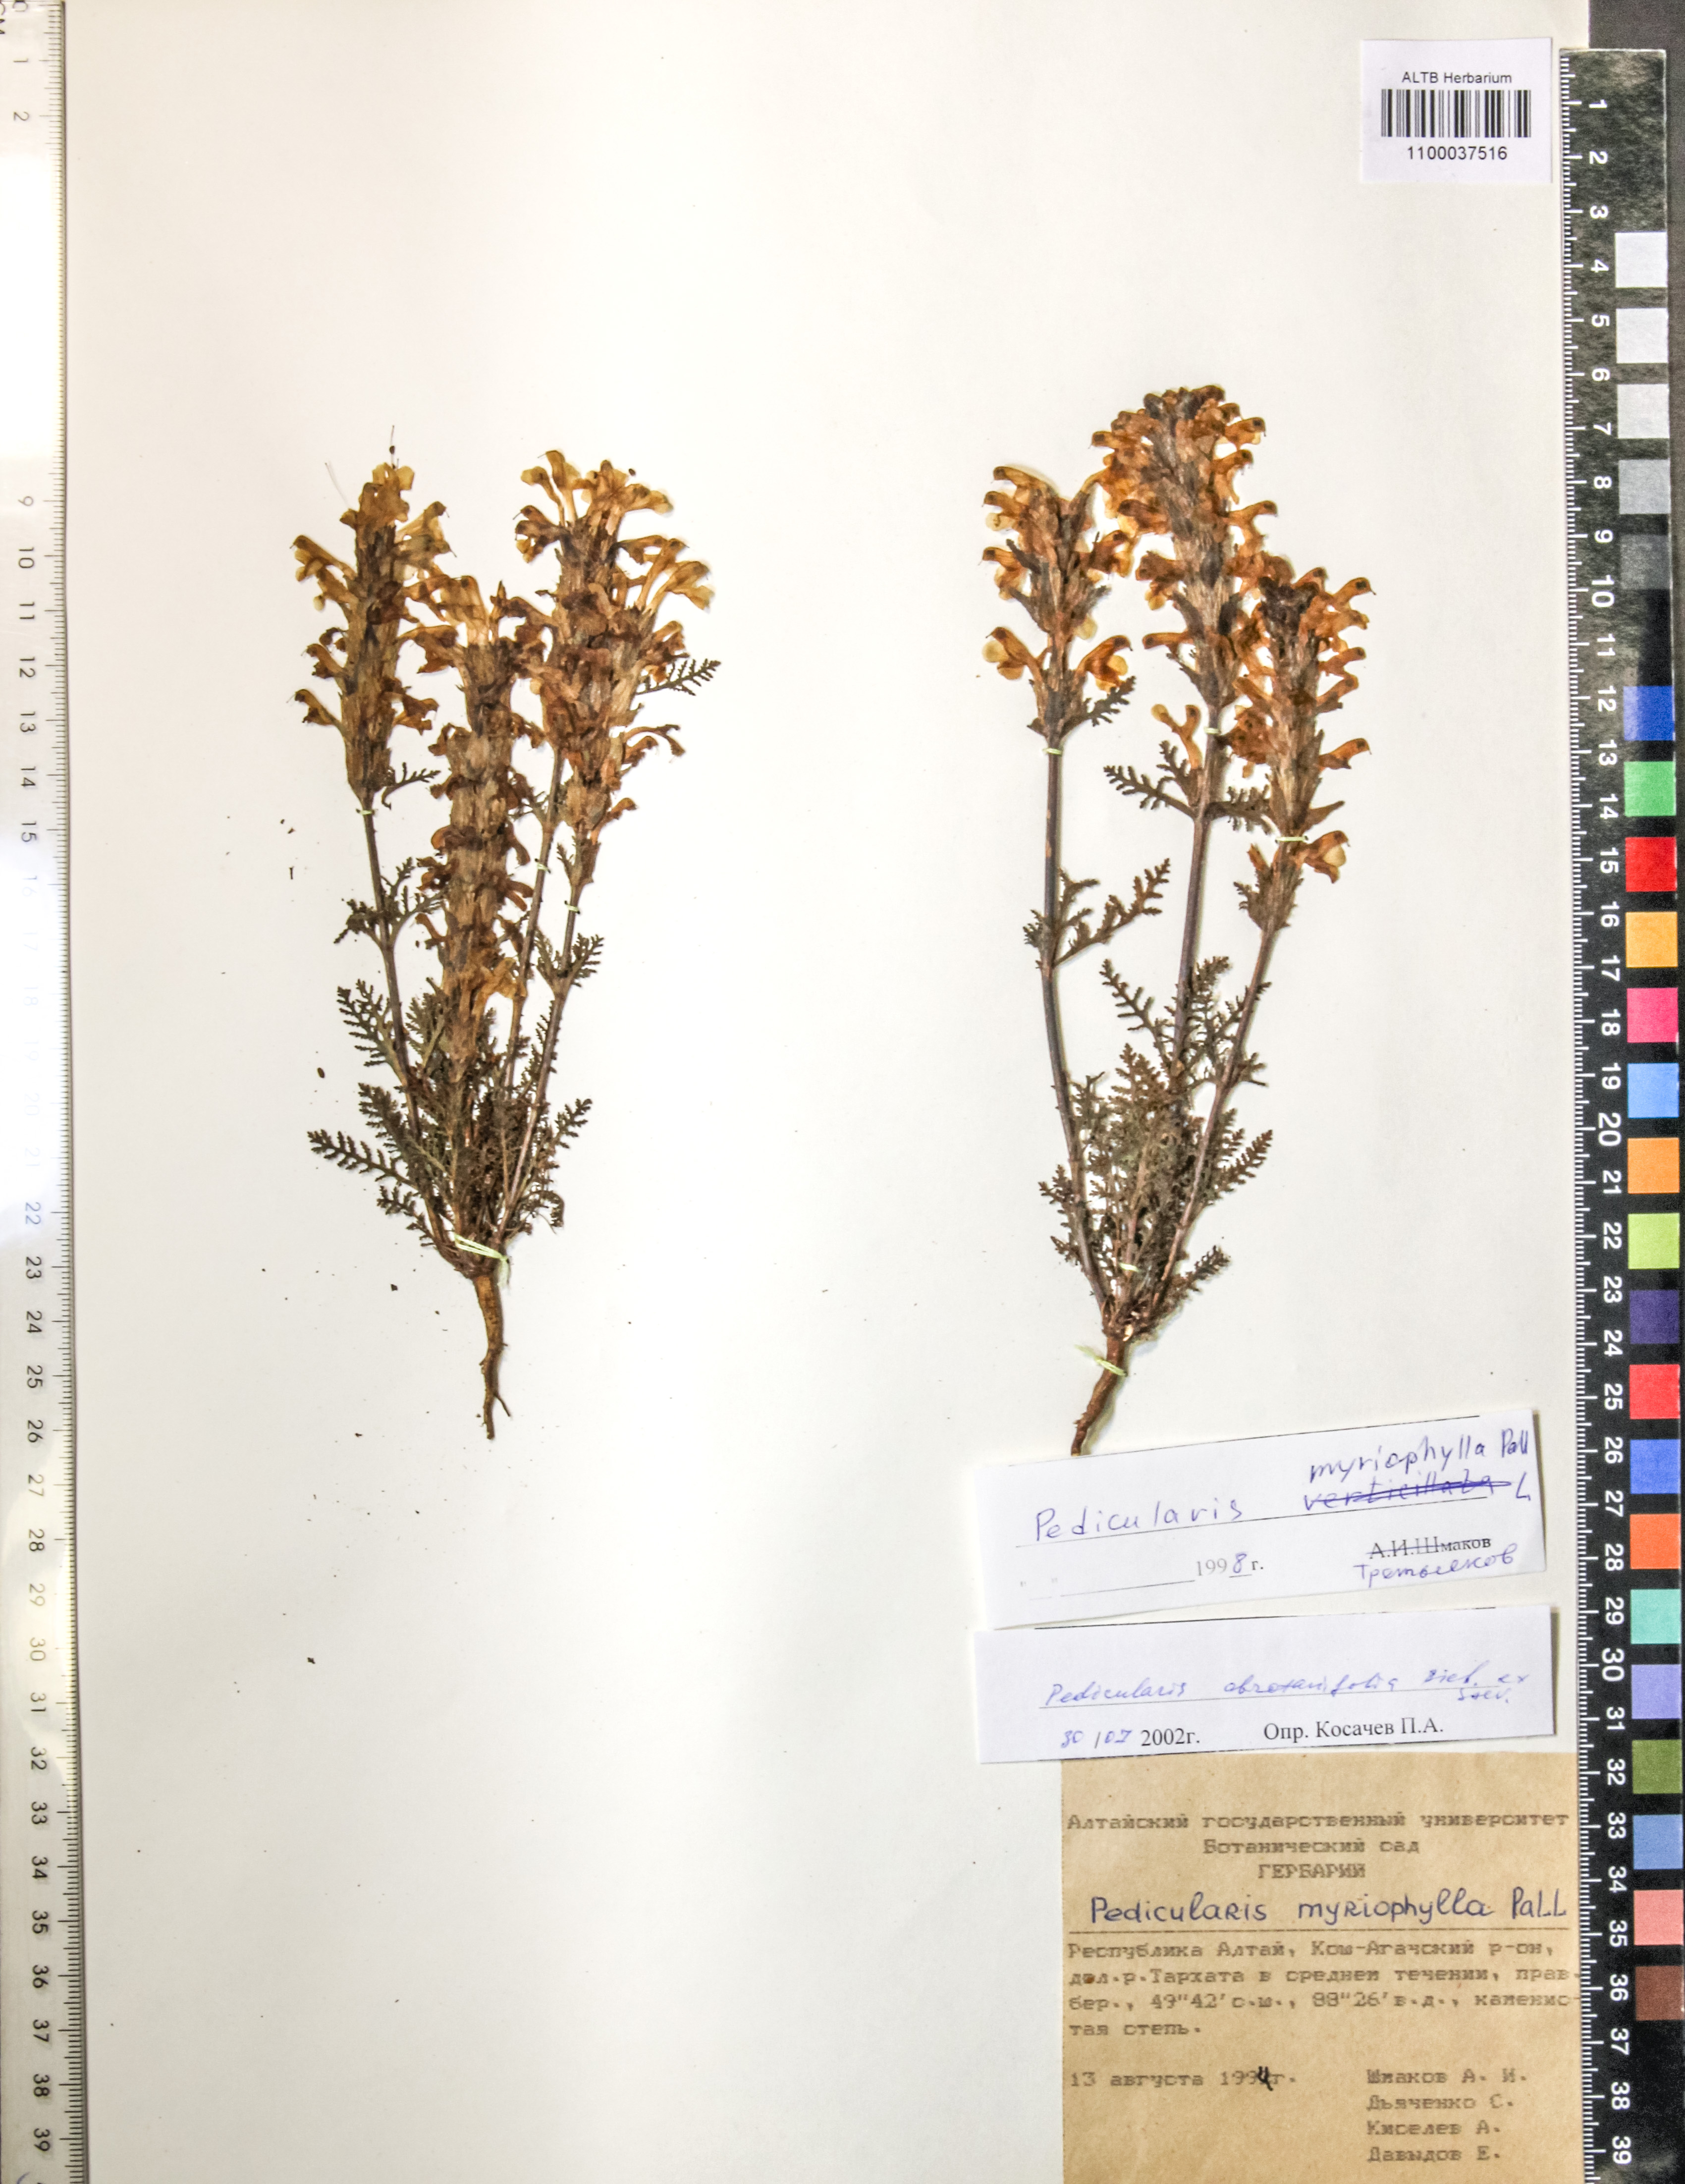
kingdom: Plantae
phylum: Tracheophyta
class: Magnoliopsida
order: Lamiales
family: Orobanchaceae
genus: Pedicularis
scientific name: Pedicularis abrotanifolia
